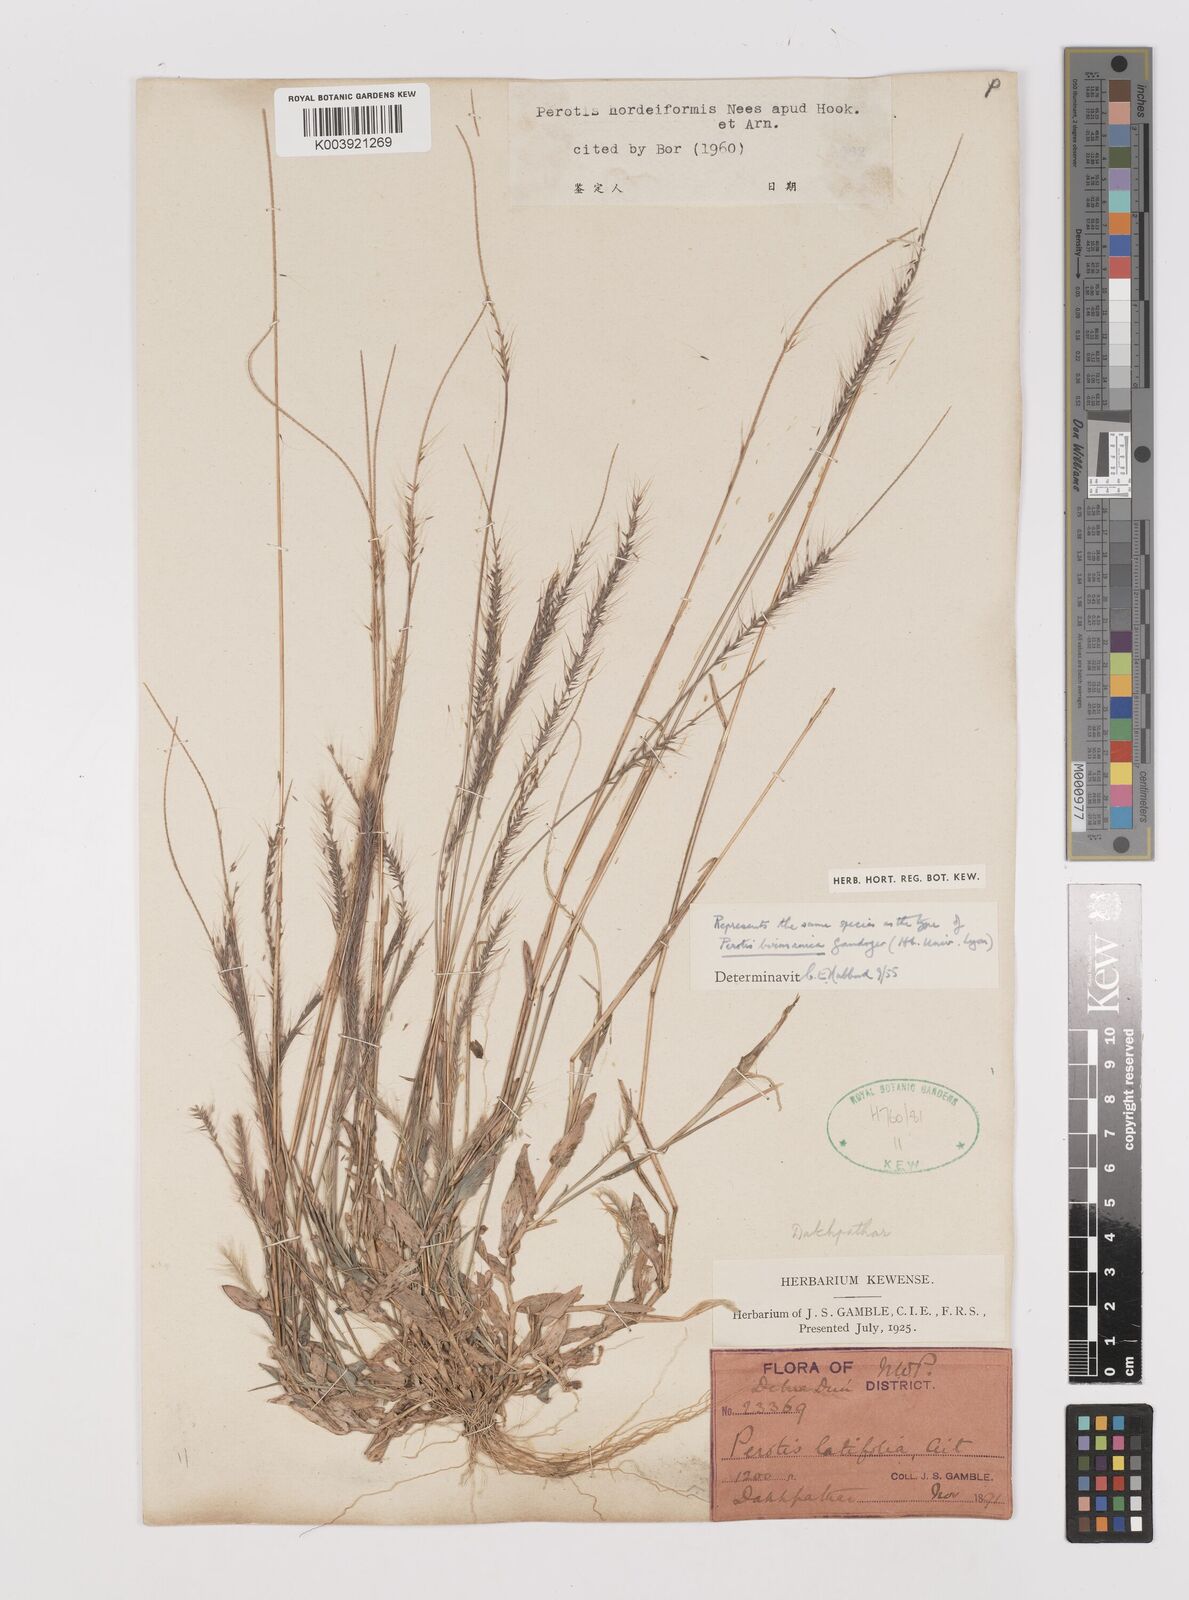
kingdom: Plantae
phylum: Tracheophyta
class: Liliopsida
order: Poales
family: Poaceae
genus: Perotis
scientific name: Perotis hordeiformis
